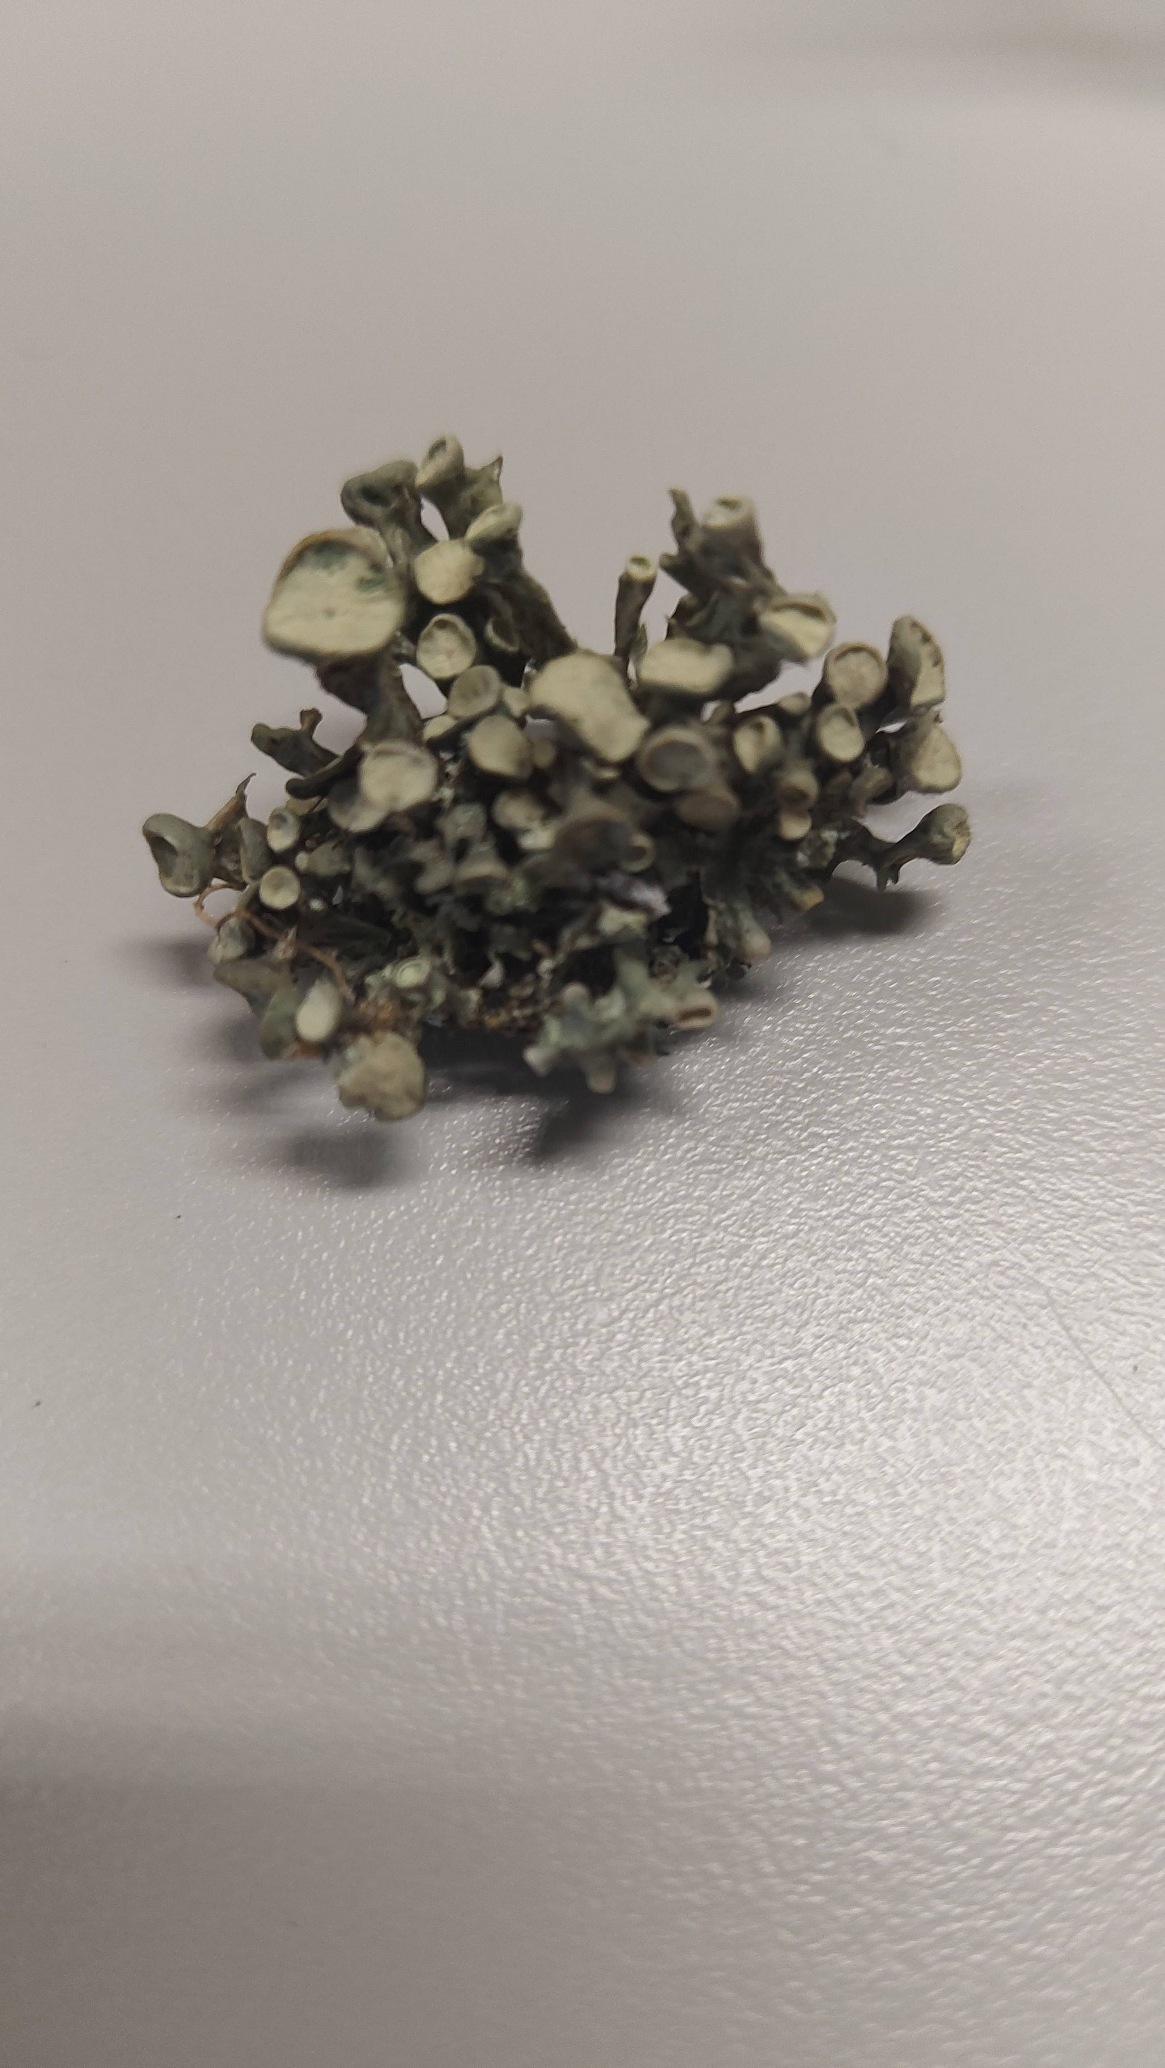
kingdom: Fungi
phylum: Ascomycota
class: Lecanoromycetes
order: Lecanorales
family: Ramalinaceae
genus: Ramalina
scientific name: Ramalina fastigiata
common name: Tue-grenlav
